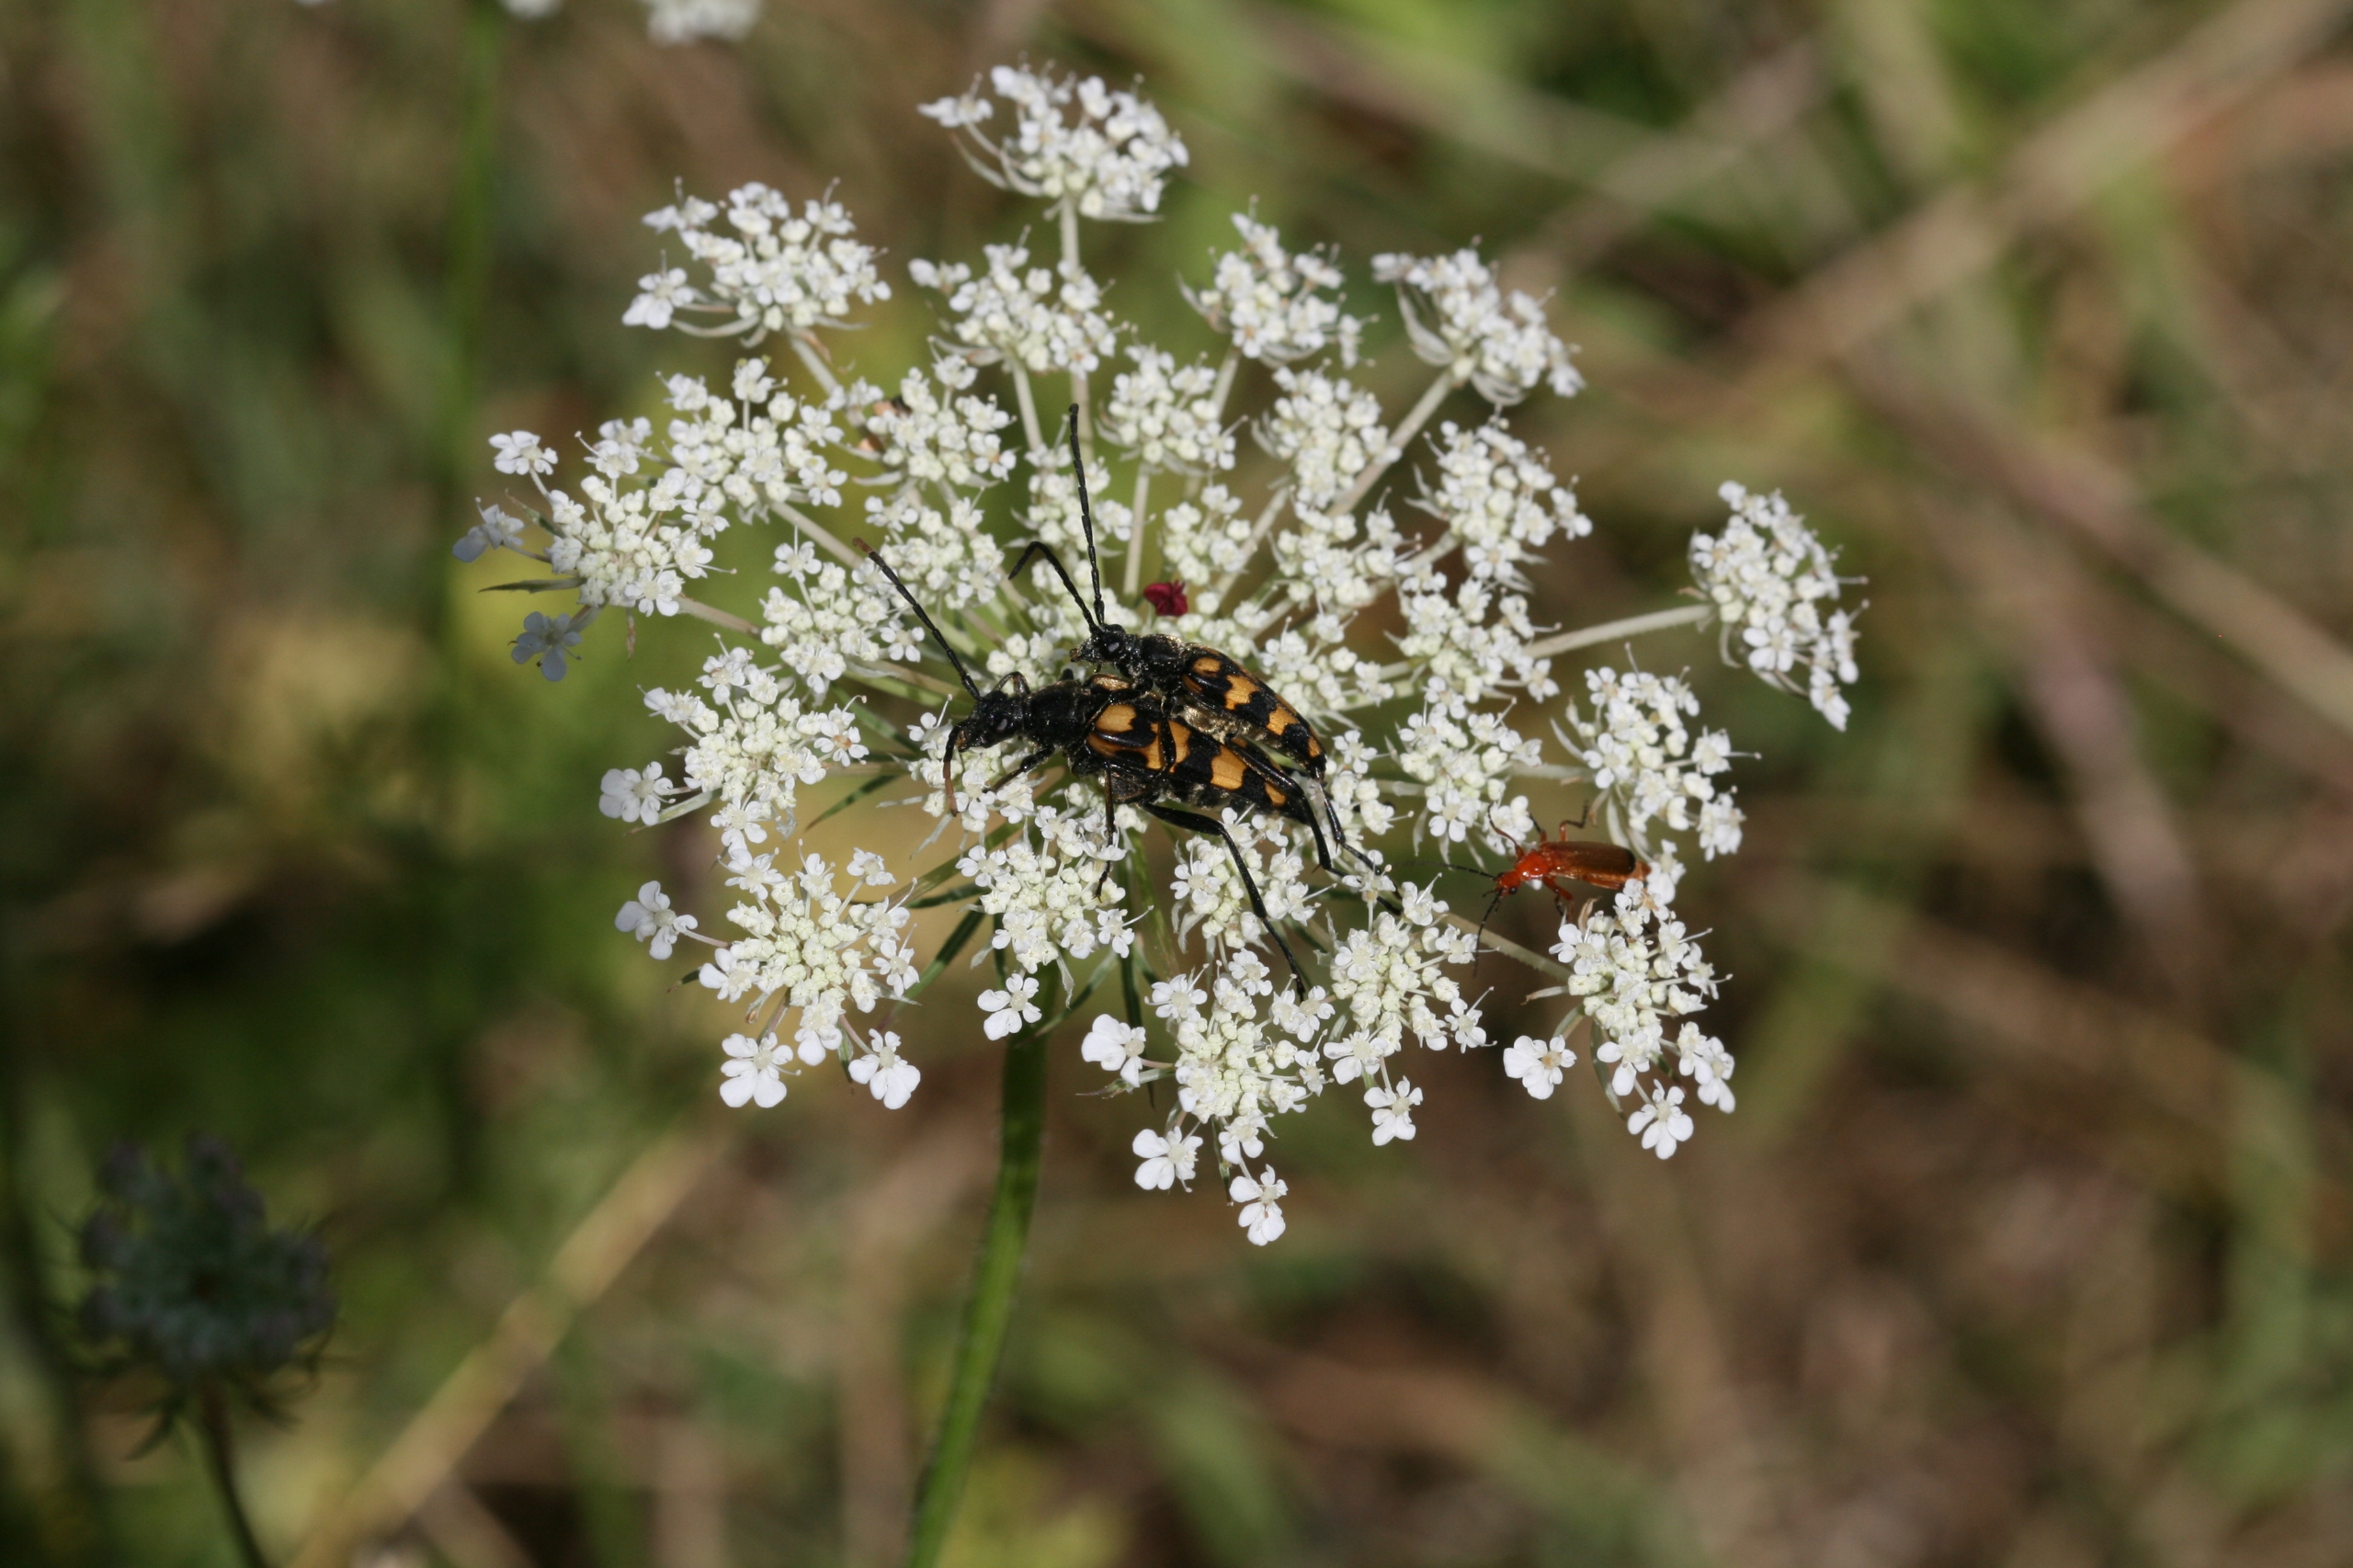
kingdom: Animalia
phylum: Arthropoda
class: Insecta
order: Coleoptera
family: Cerambycidae
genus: Leptura
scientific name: Leptura quadrifasciata
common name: Firebåndet blomsterbuk
